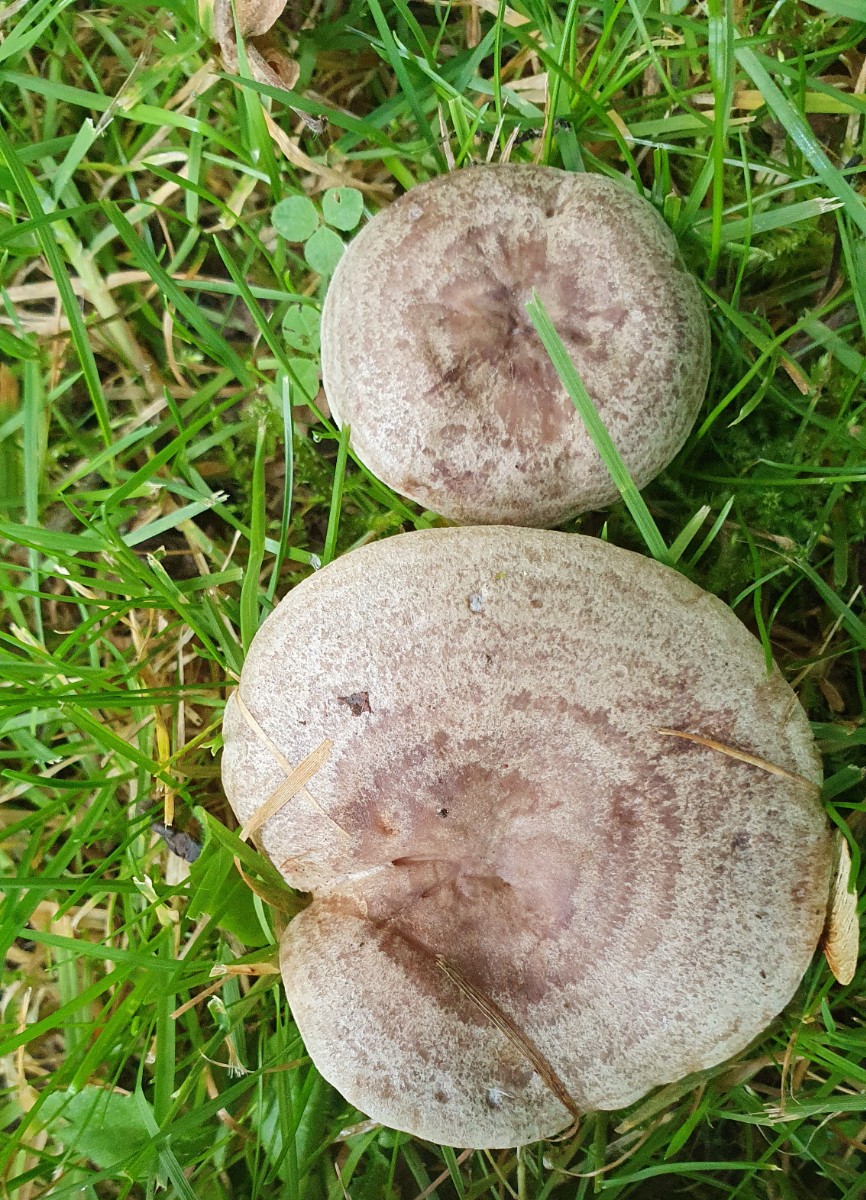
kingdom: Fungi
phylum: Basidiomycota
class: Agaricomycetes
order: Russulales
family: Russulaceae
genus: Lactarius
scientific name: Lactarius circellatus
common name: avnbøg-mælkehat
